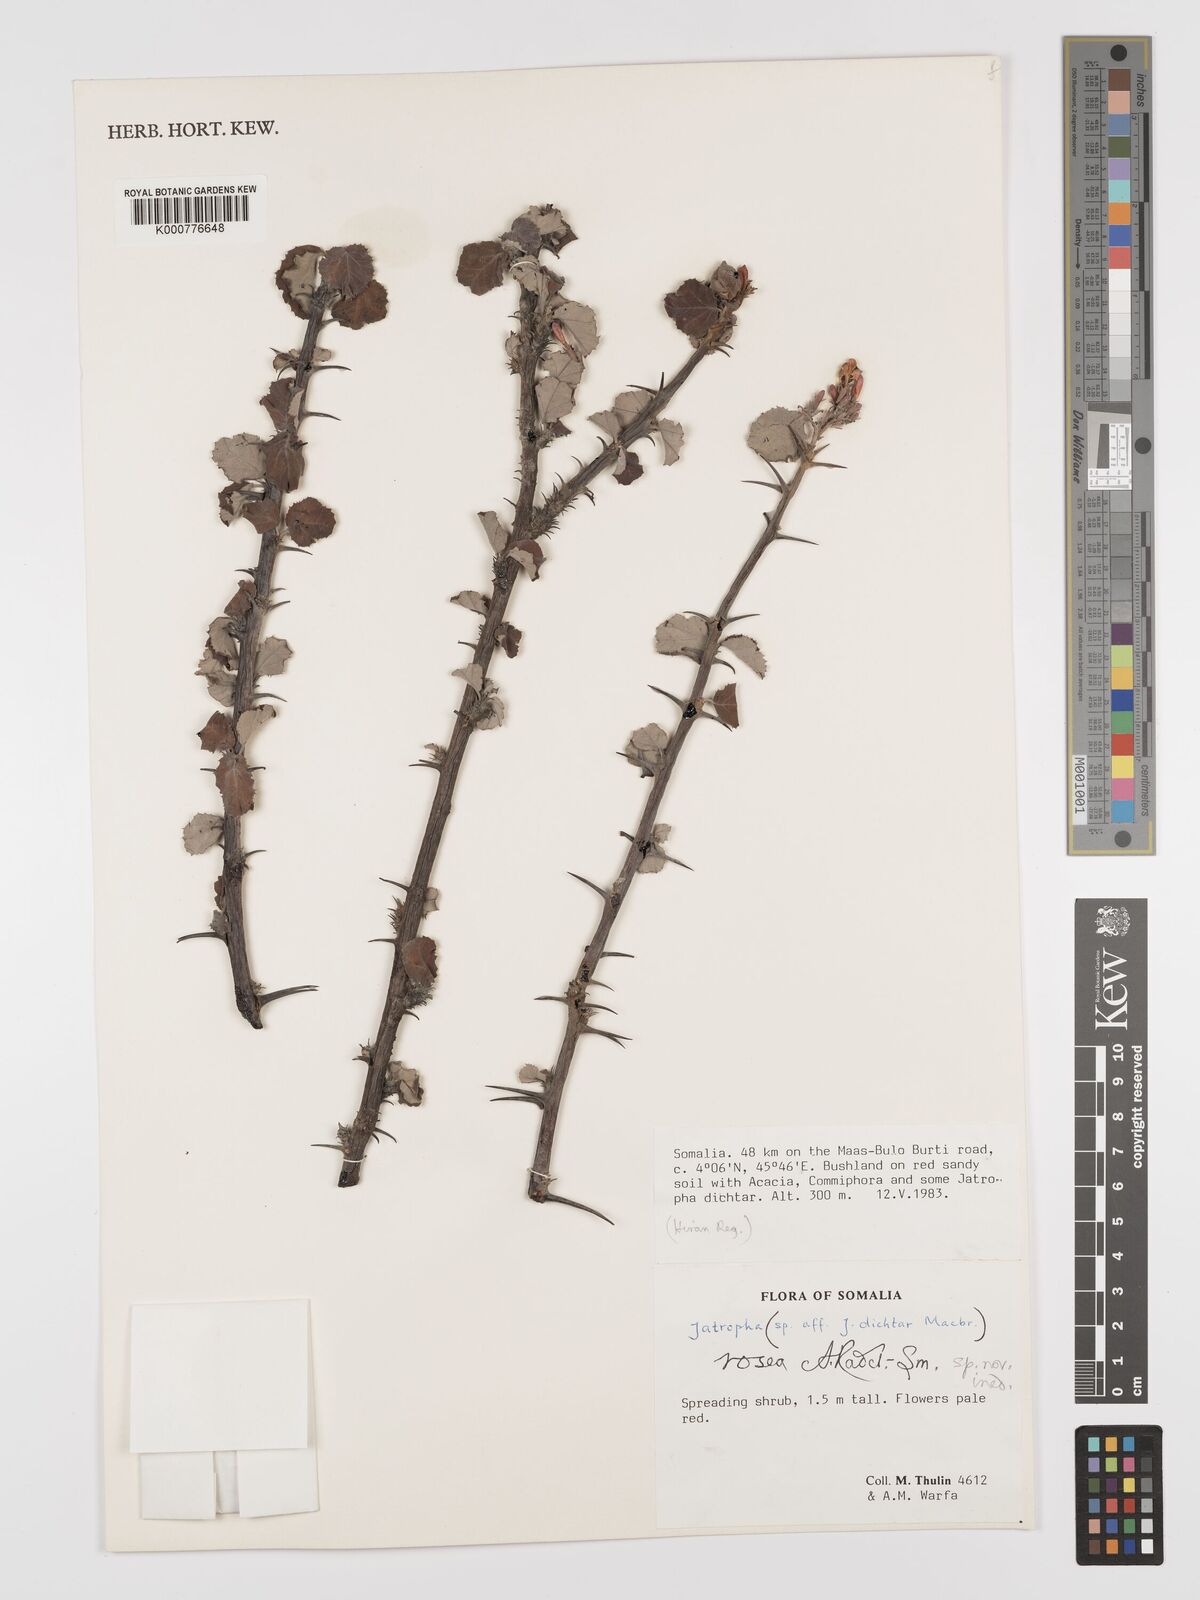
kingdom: Plantae
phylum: Tracheophyta
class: Magnoliopsida
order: Malpighiales
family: Euphorbiaceae
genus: Jatropha
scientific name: Jatropha rosea
